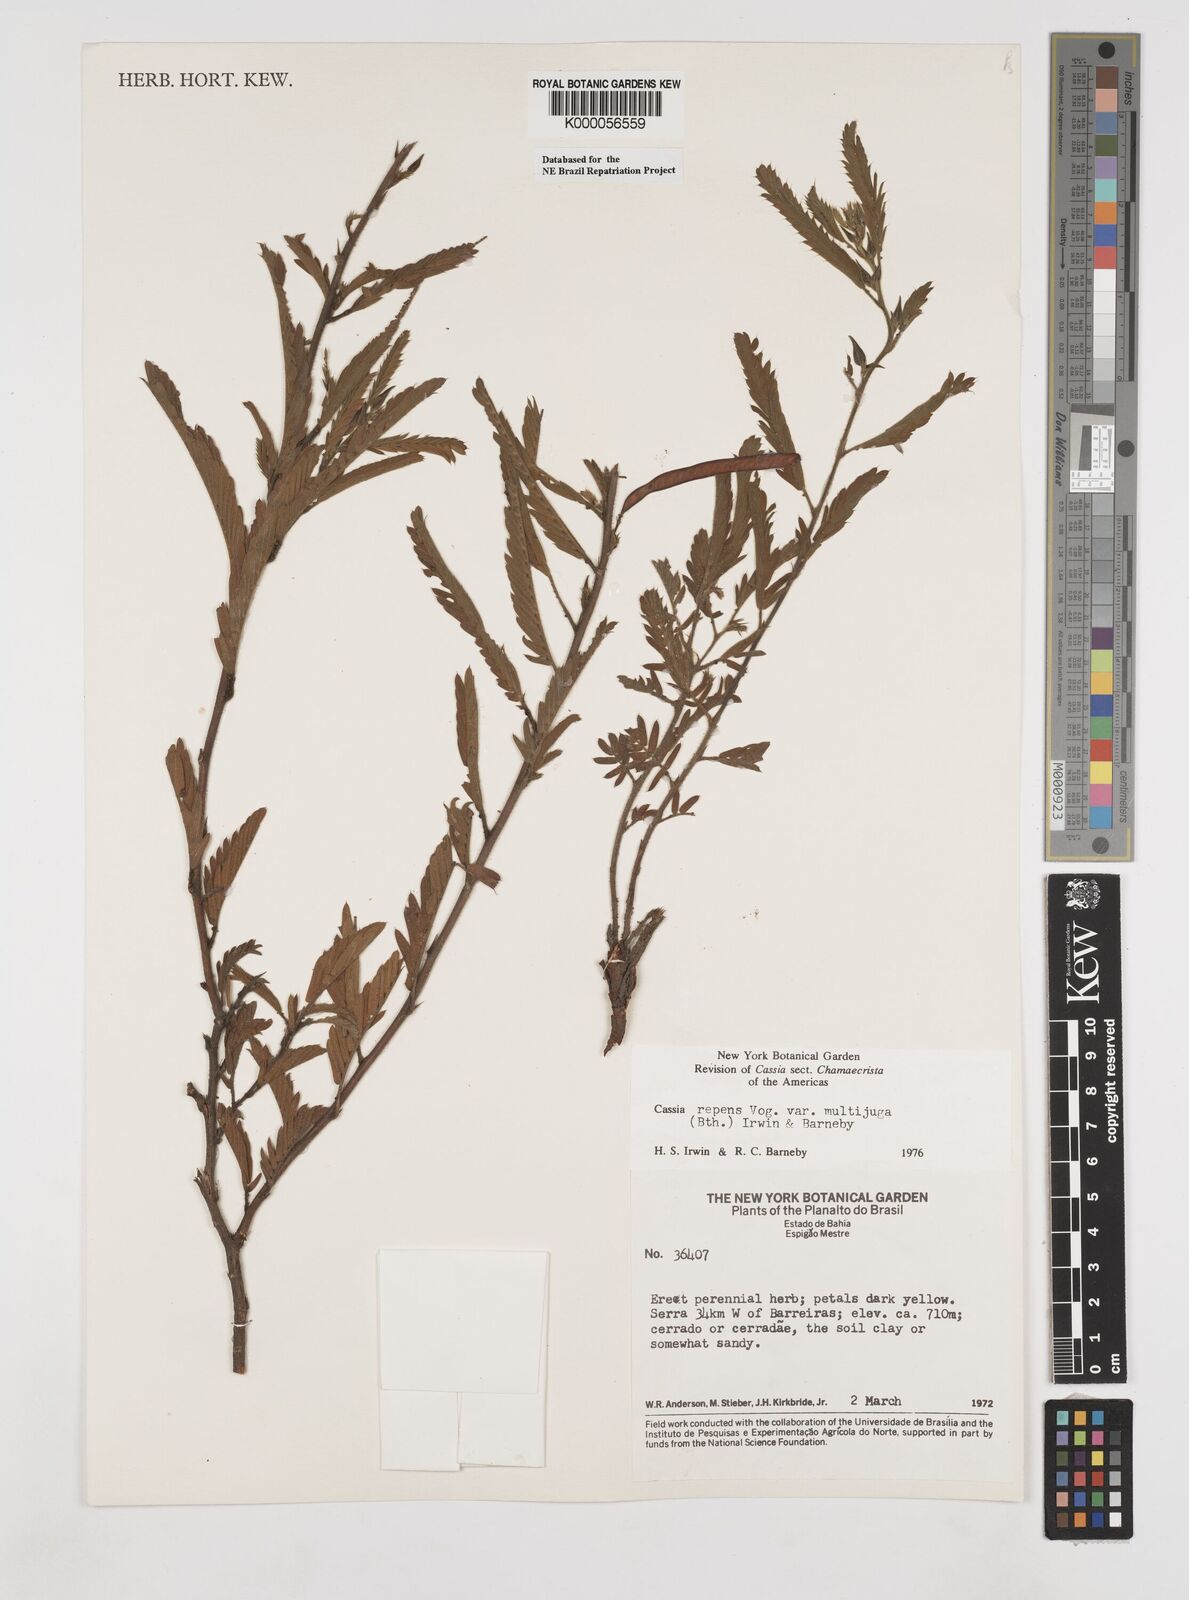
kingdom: Plantae
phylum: Tracheophyta
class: Magnoliopsida
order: Fabales
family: Fabaceae
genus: Chamaecrista
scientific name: Chamaecrista repens
